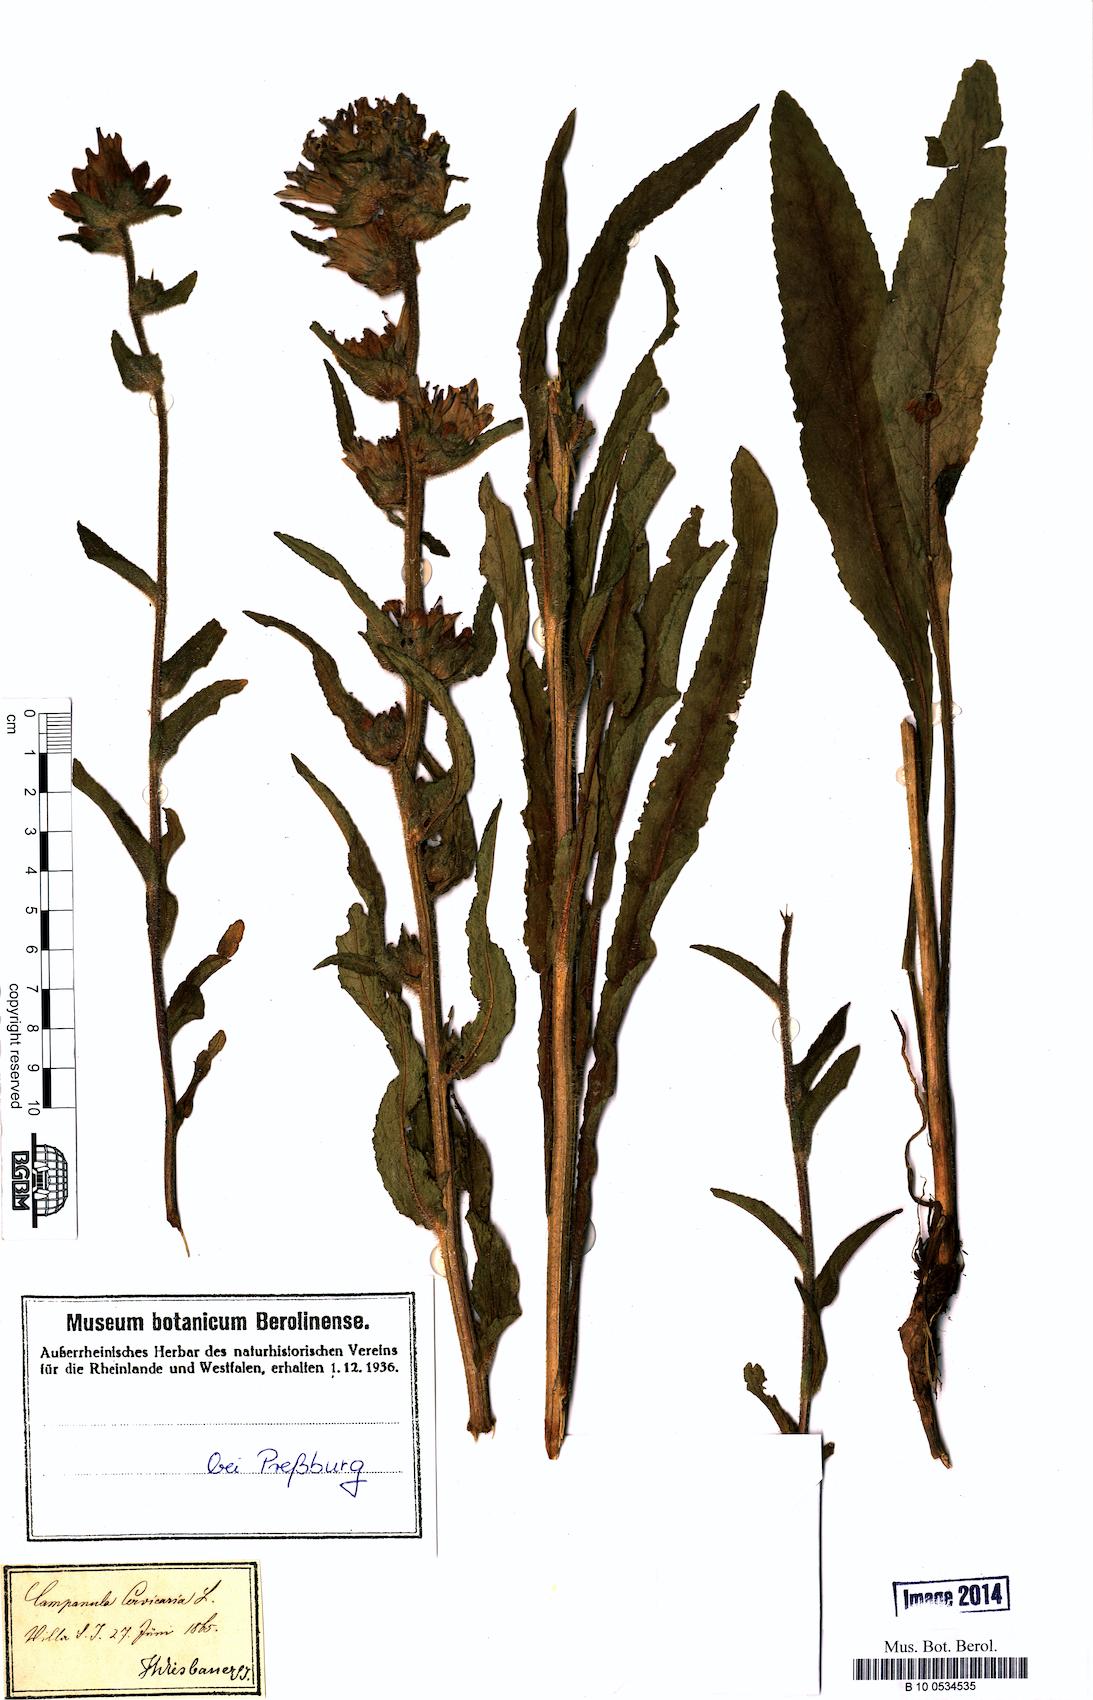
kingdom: Plantae
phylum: Tracheophyta
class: Magnoliopsida
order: Asterales
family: Campanulaceae
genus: Campanula
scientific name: Campanula cervicaria
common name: Bristly bellflower
